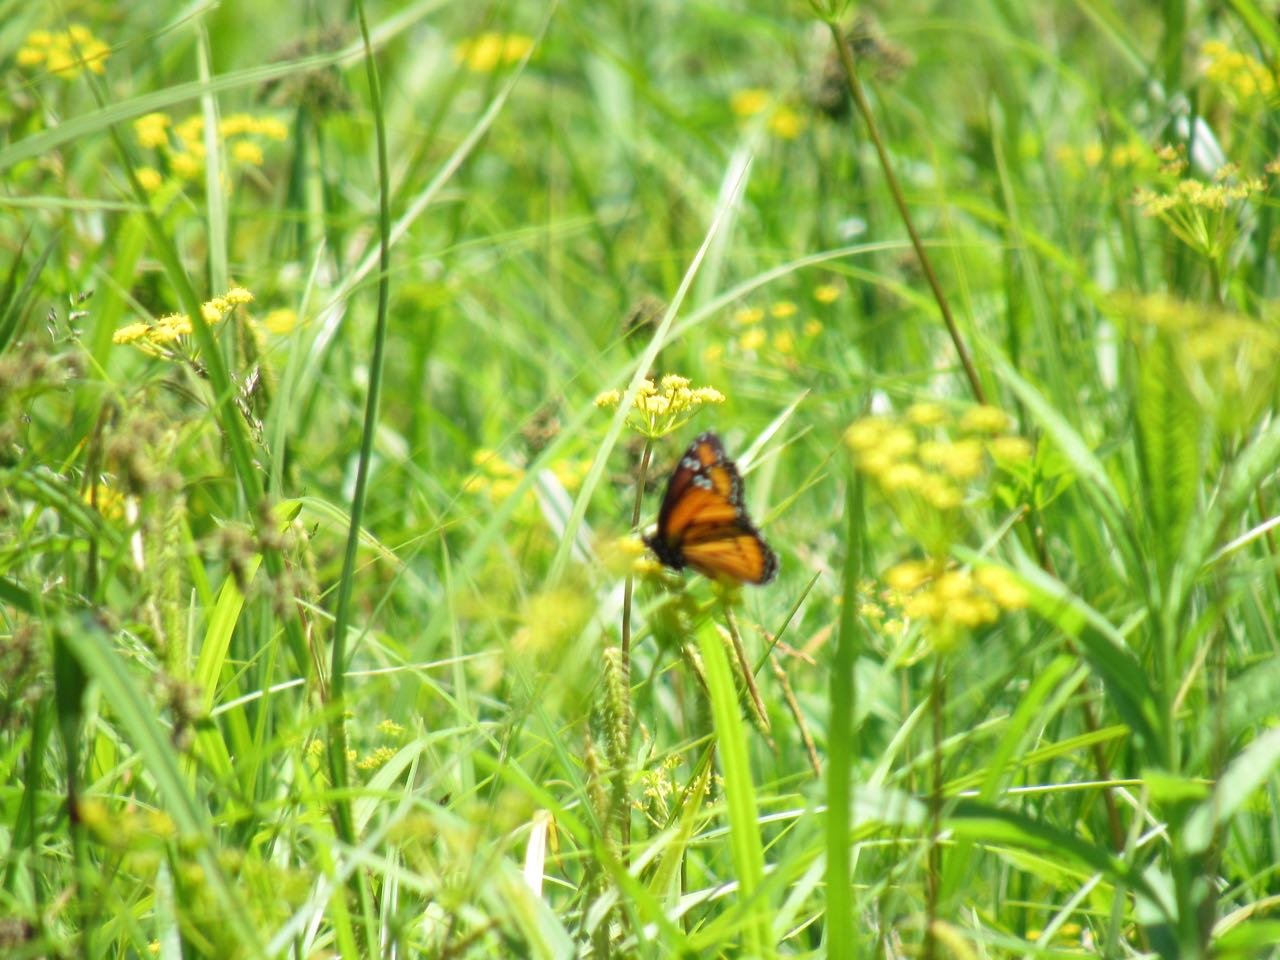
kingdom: Animalia
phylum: Arthropoda
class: Insecta
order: Lepidoptera
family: Nymphalidae
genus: Limenitis
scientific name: Limenitis archippus
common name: Viceroy
